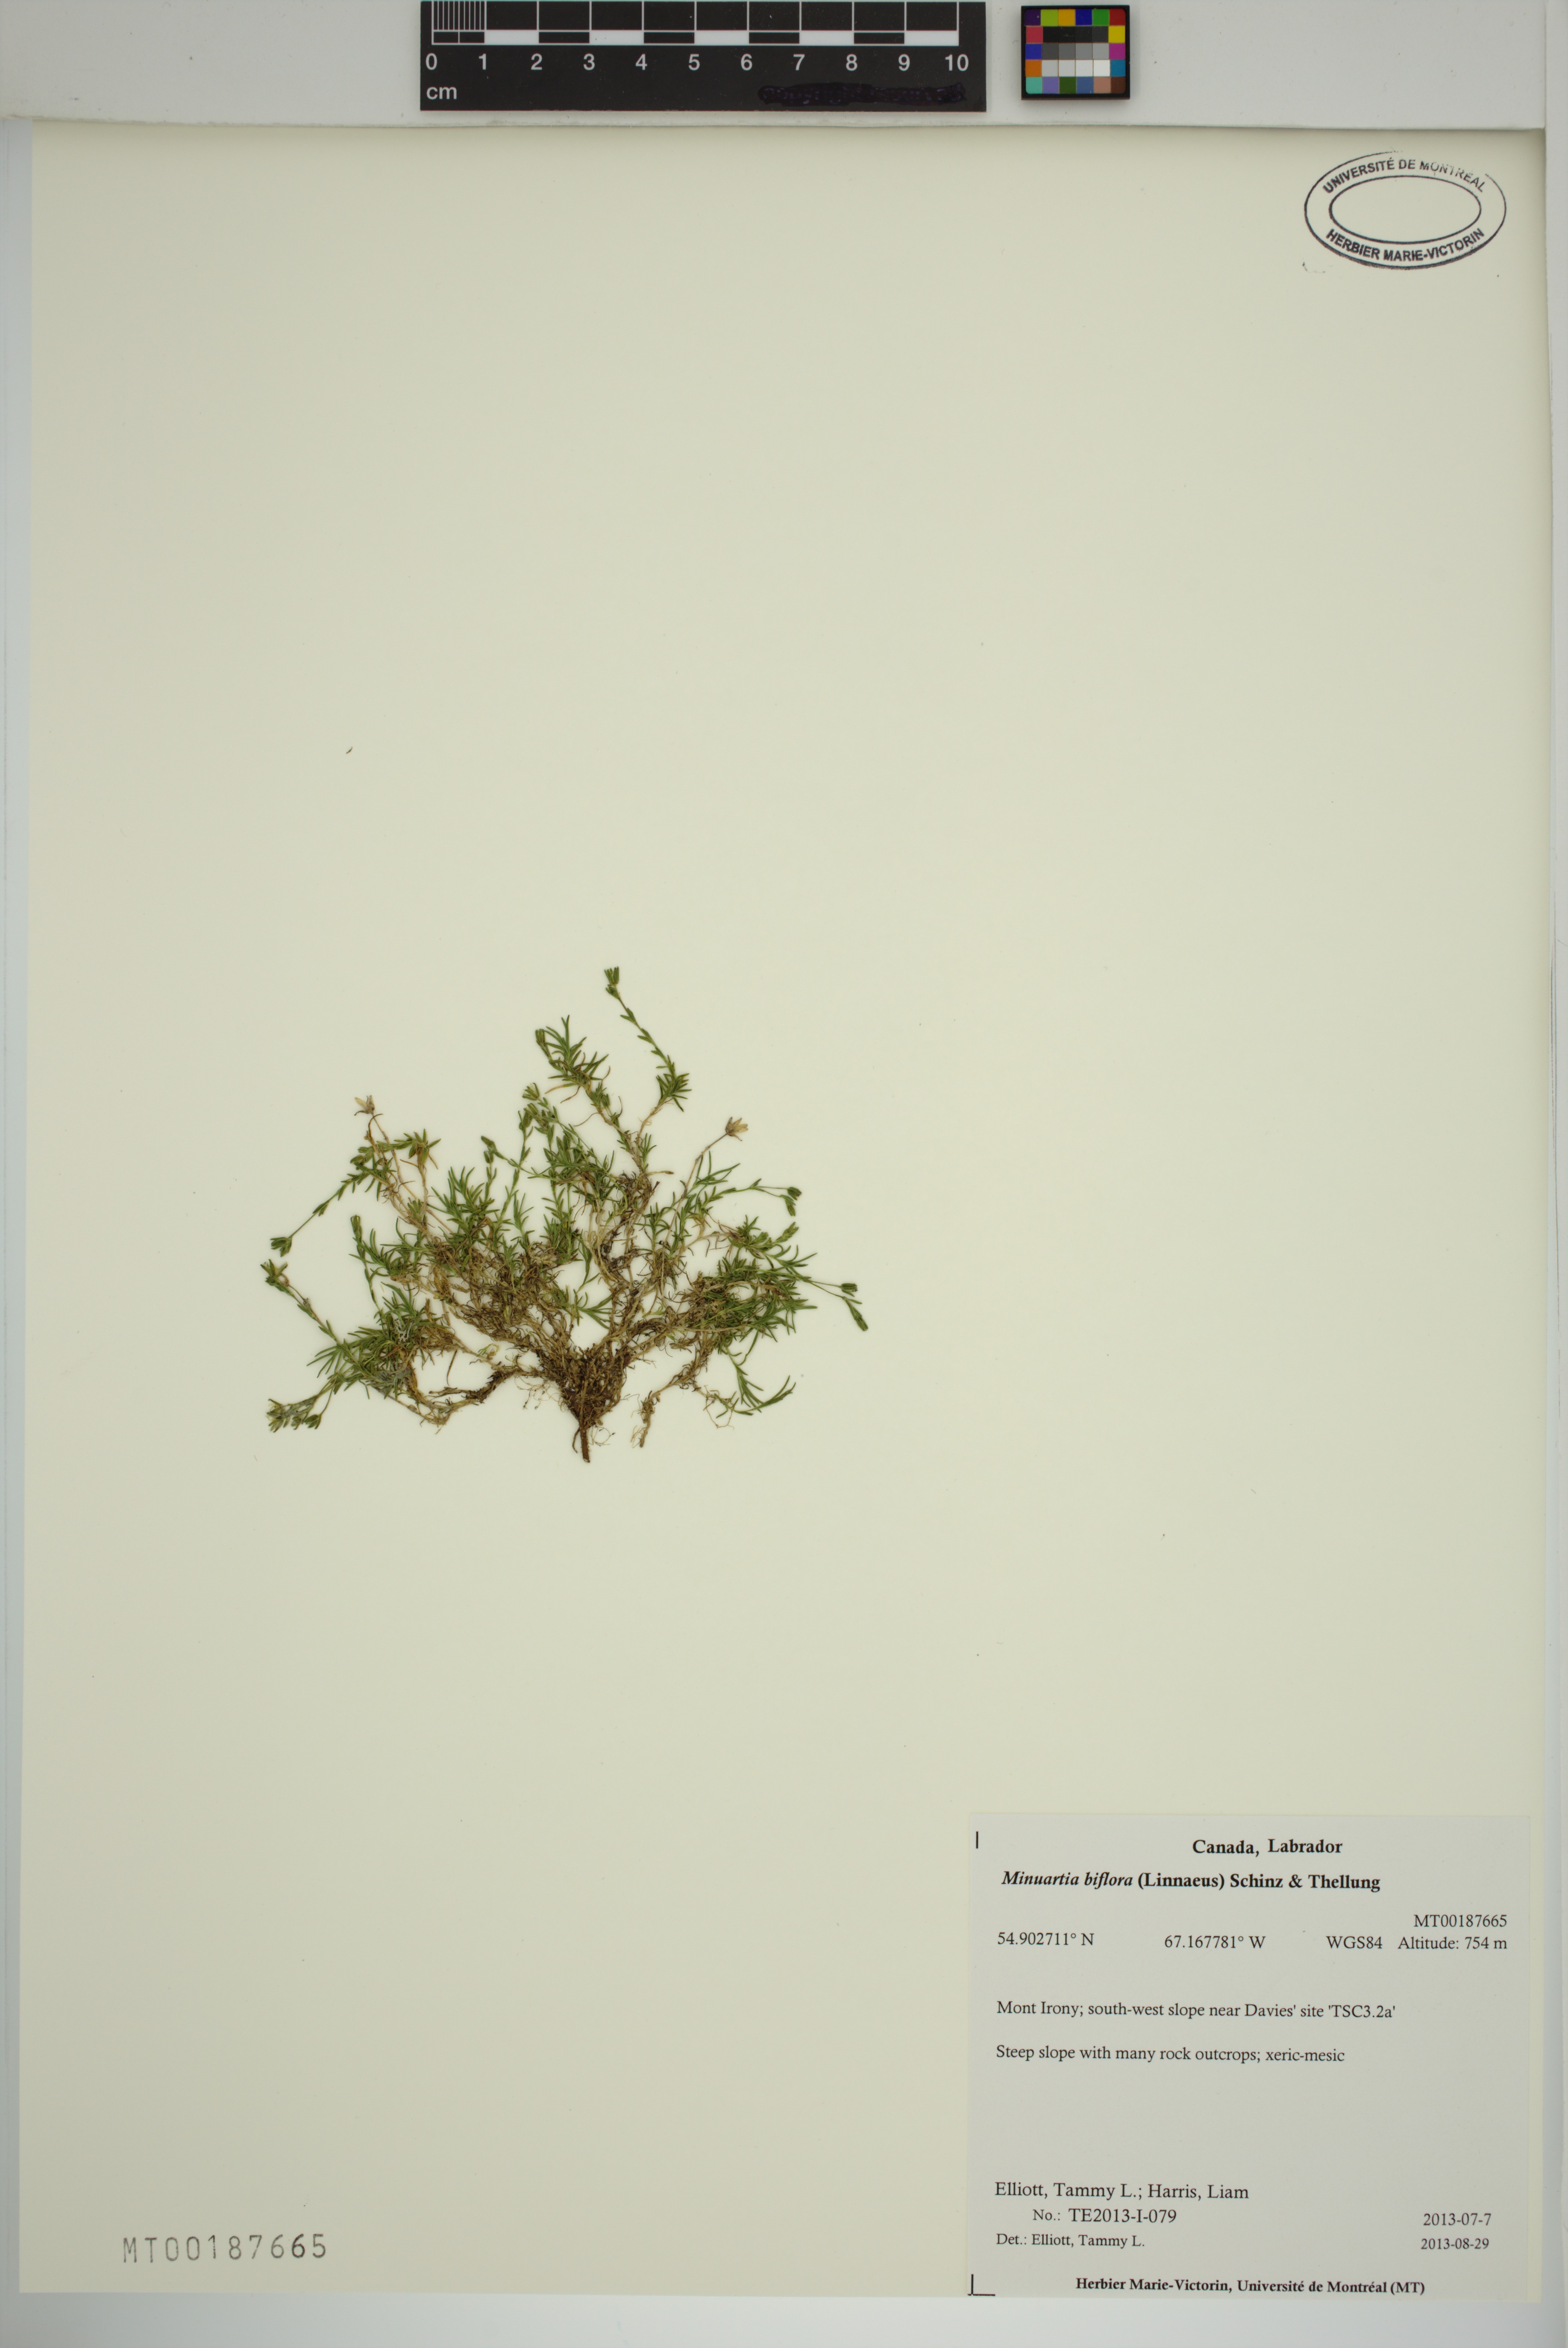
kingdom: Plantae
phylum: Tracheophyta
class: Magnoliopsida
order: Caryophyllales
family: Caryophyllaceae
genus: Cherleria
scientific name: Cherleria biflora
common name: Mountain sandwort
